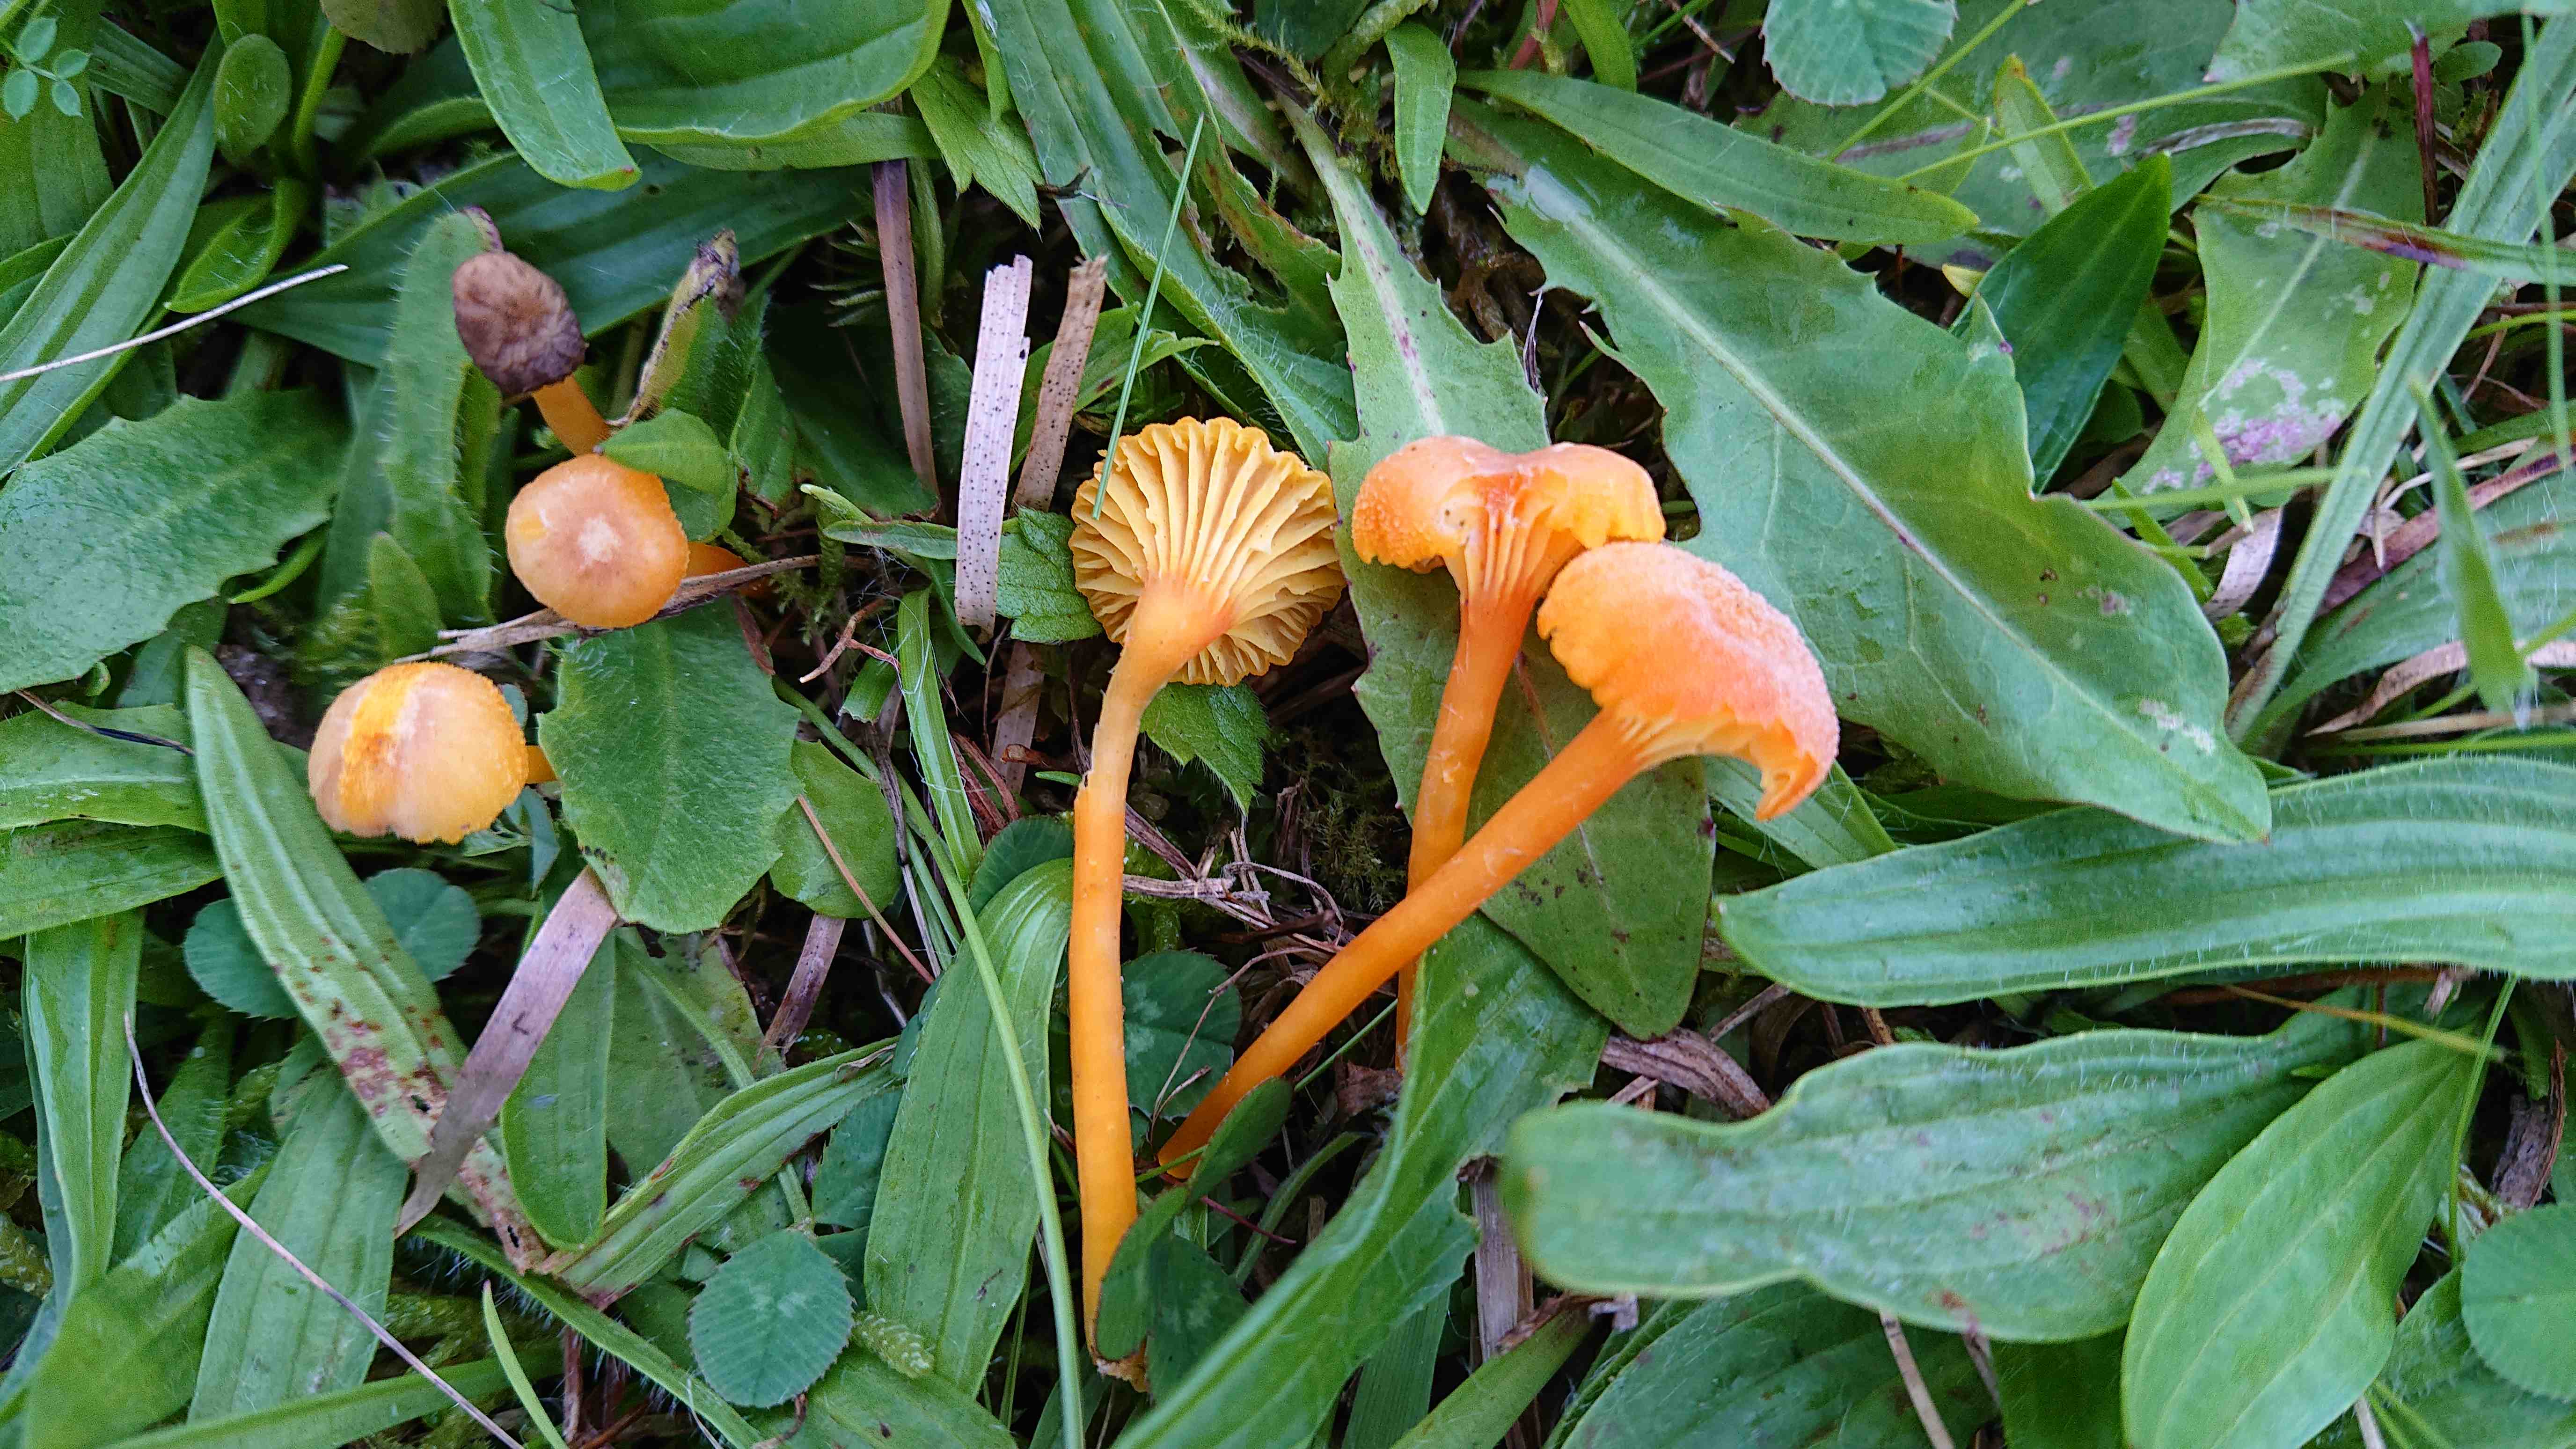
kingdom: Fungi
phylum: Basidiomycota
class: Agaricomycetes
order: Agaricales
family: Hygrophoraceae
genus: Hygrocybe
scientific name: Hygrocybe cantharellus
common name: kantarel-vokshat
